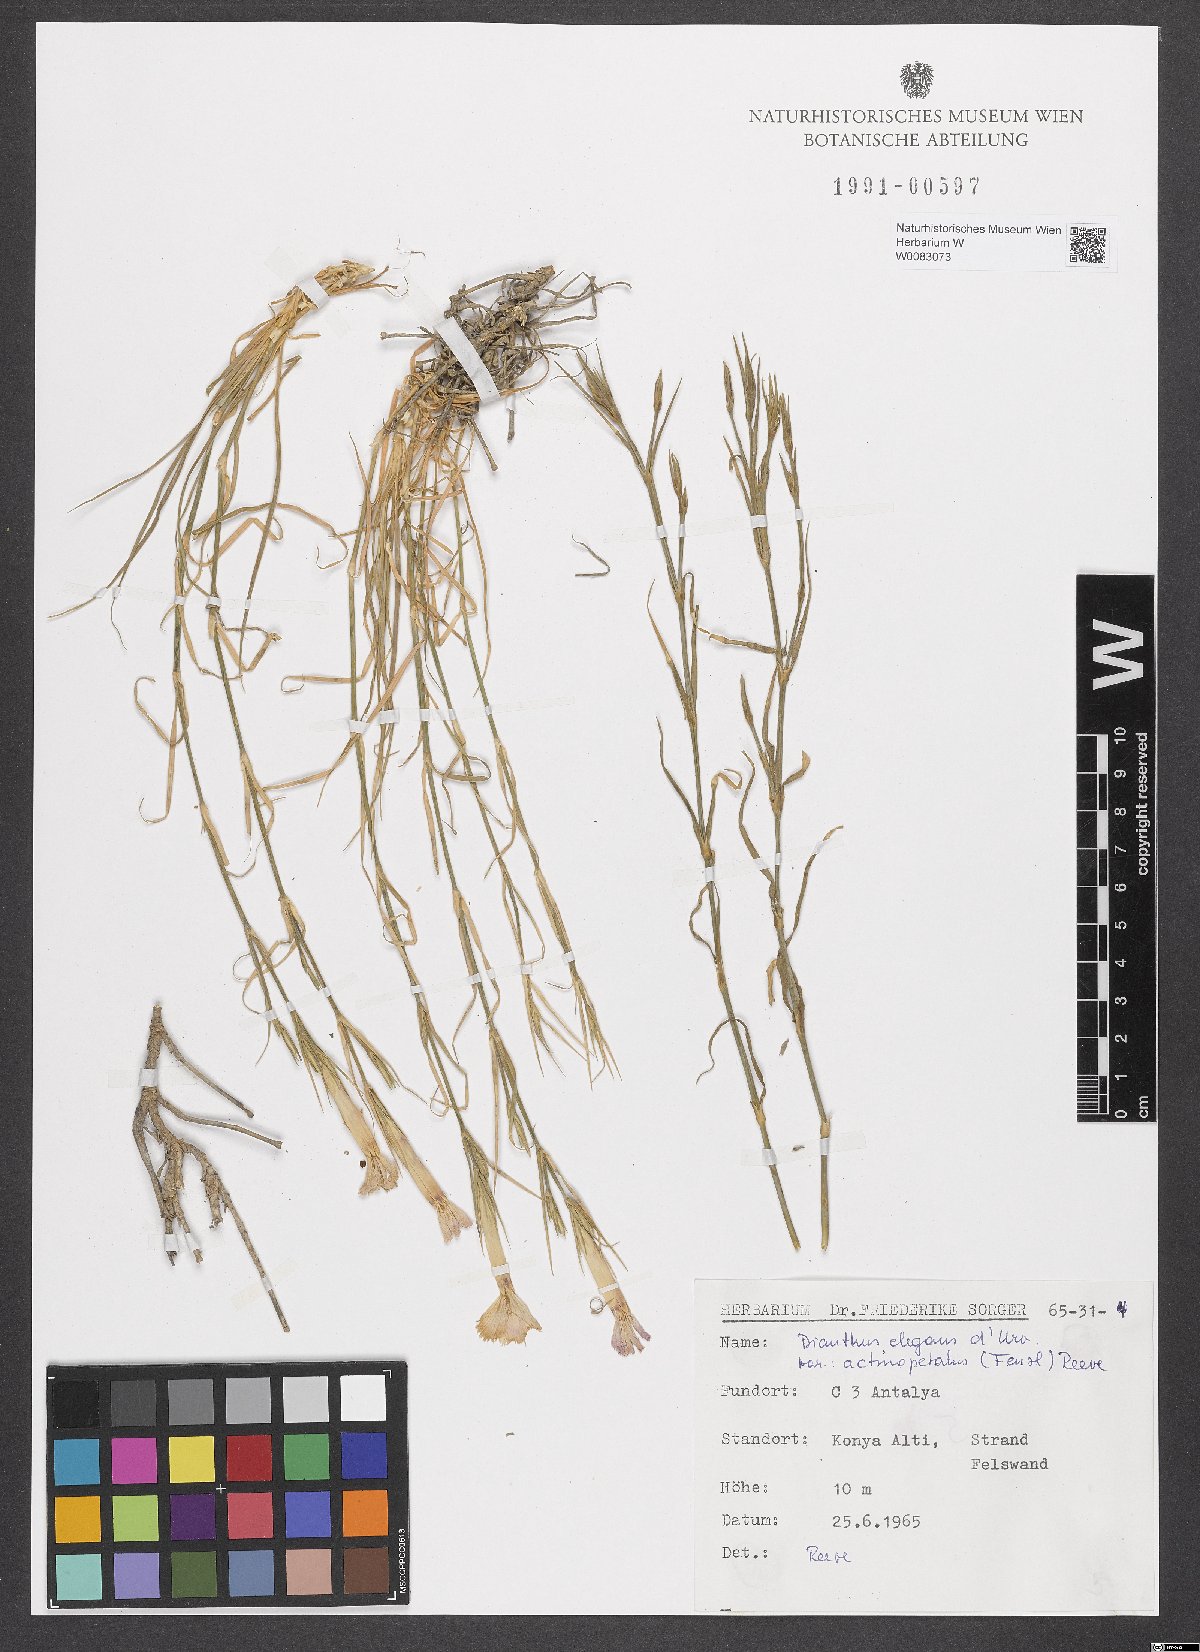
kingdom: Plantae
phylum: Tracheophyta
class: Magnoliopsida
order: Caryophyllales
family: Caryophyllaceae
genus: Dianthus
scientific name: Dianthus elegans
